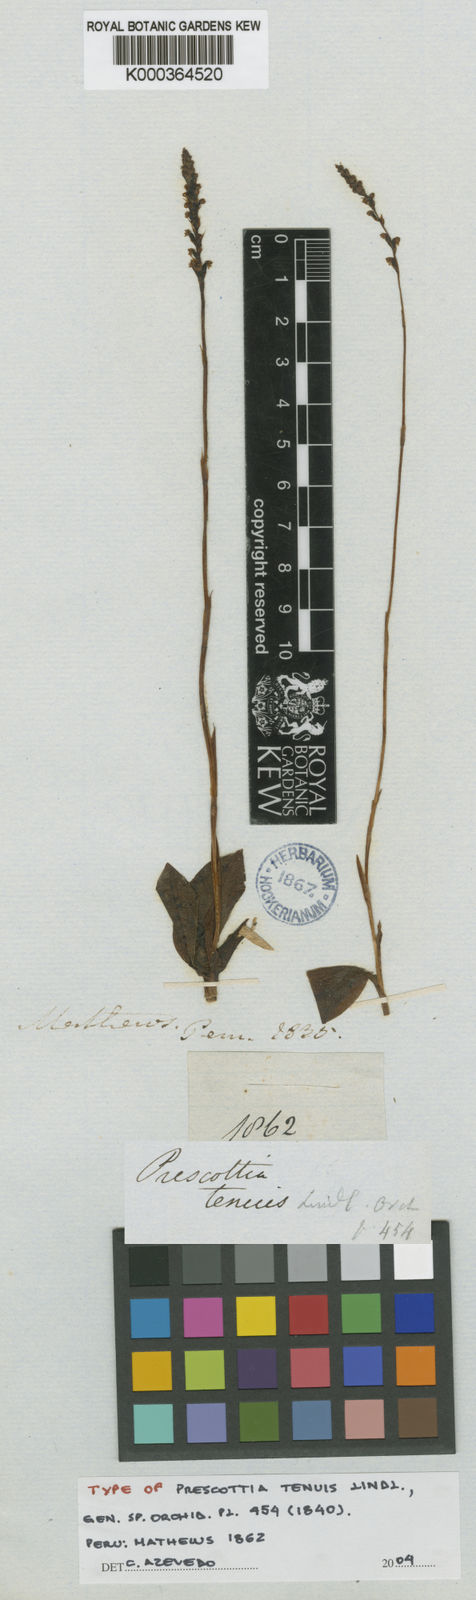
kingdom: Plantae
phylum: Tracheophyta
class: Liliopsida
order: Asparagales
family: Orchidaceae
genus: Prescottia
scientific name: Prescottia oligantha
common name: Small prescott orchid
